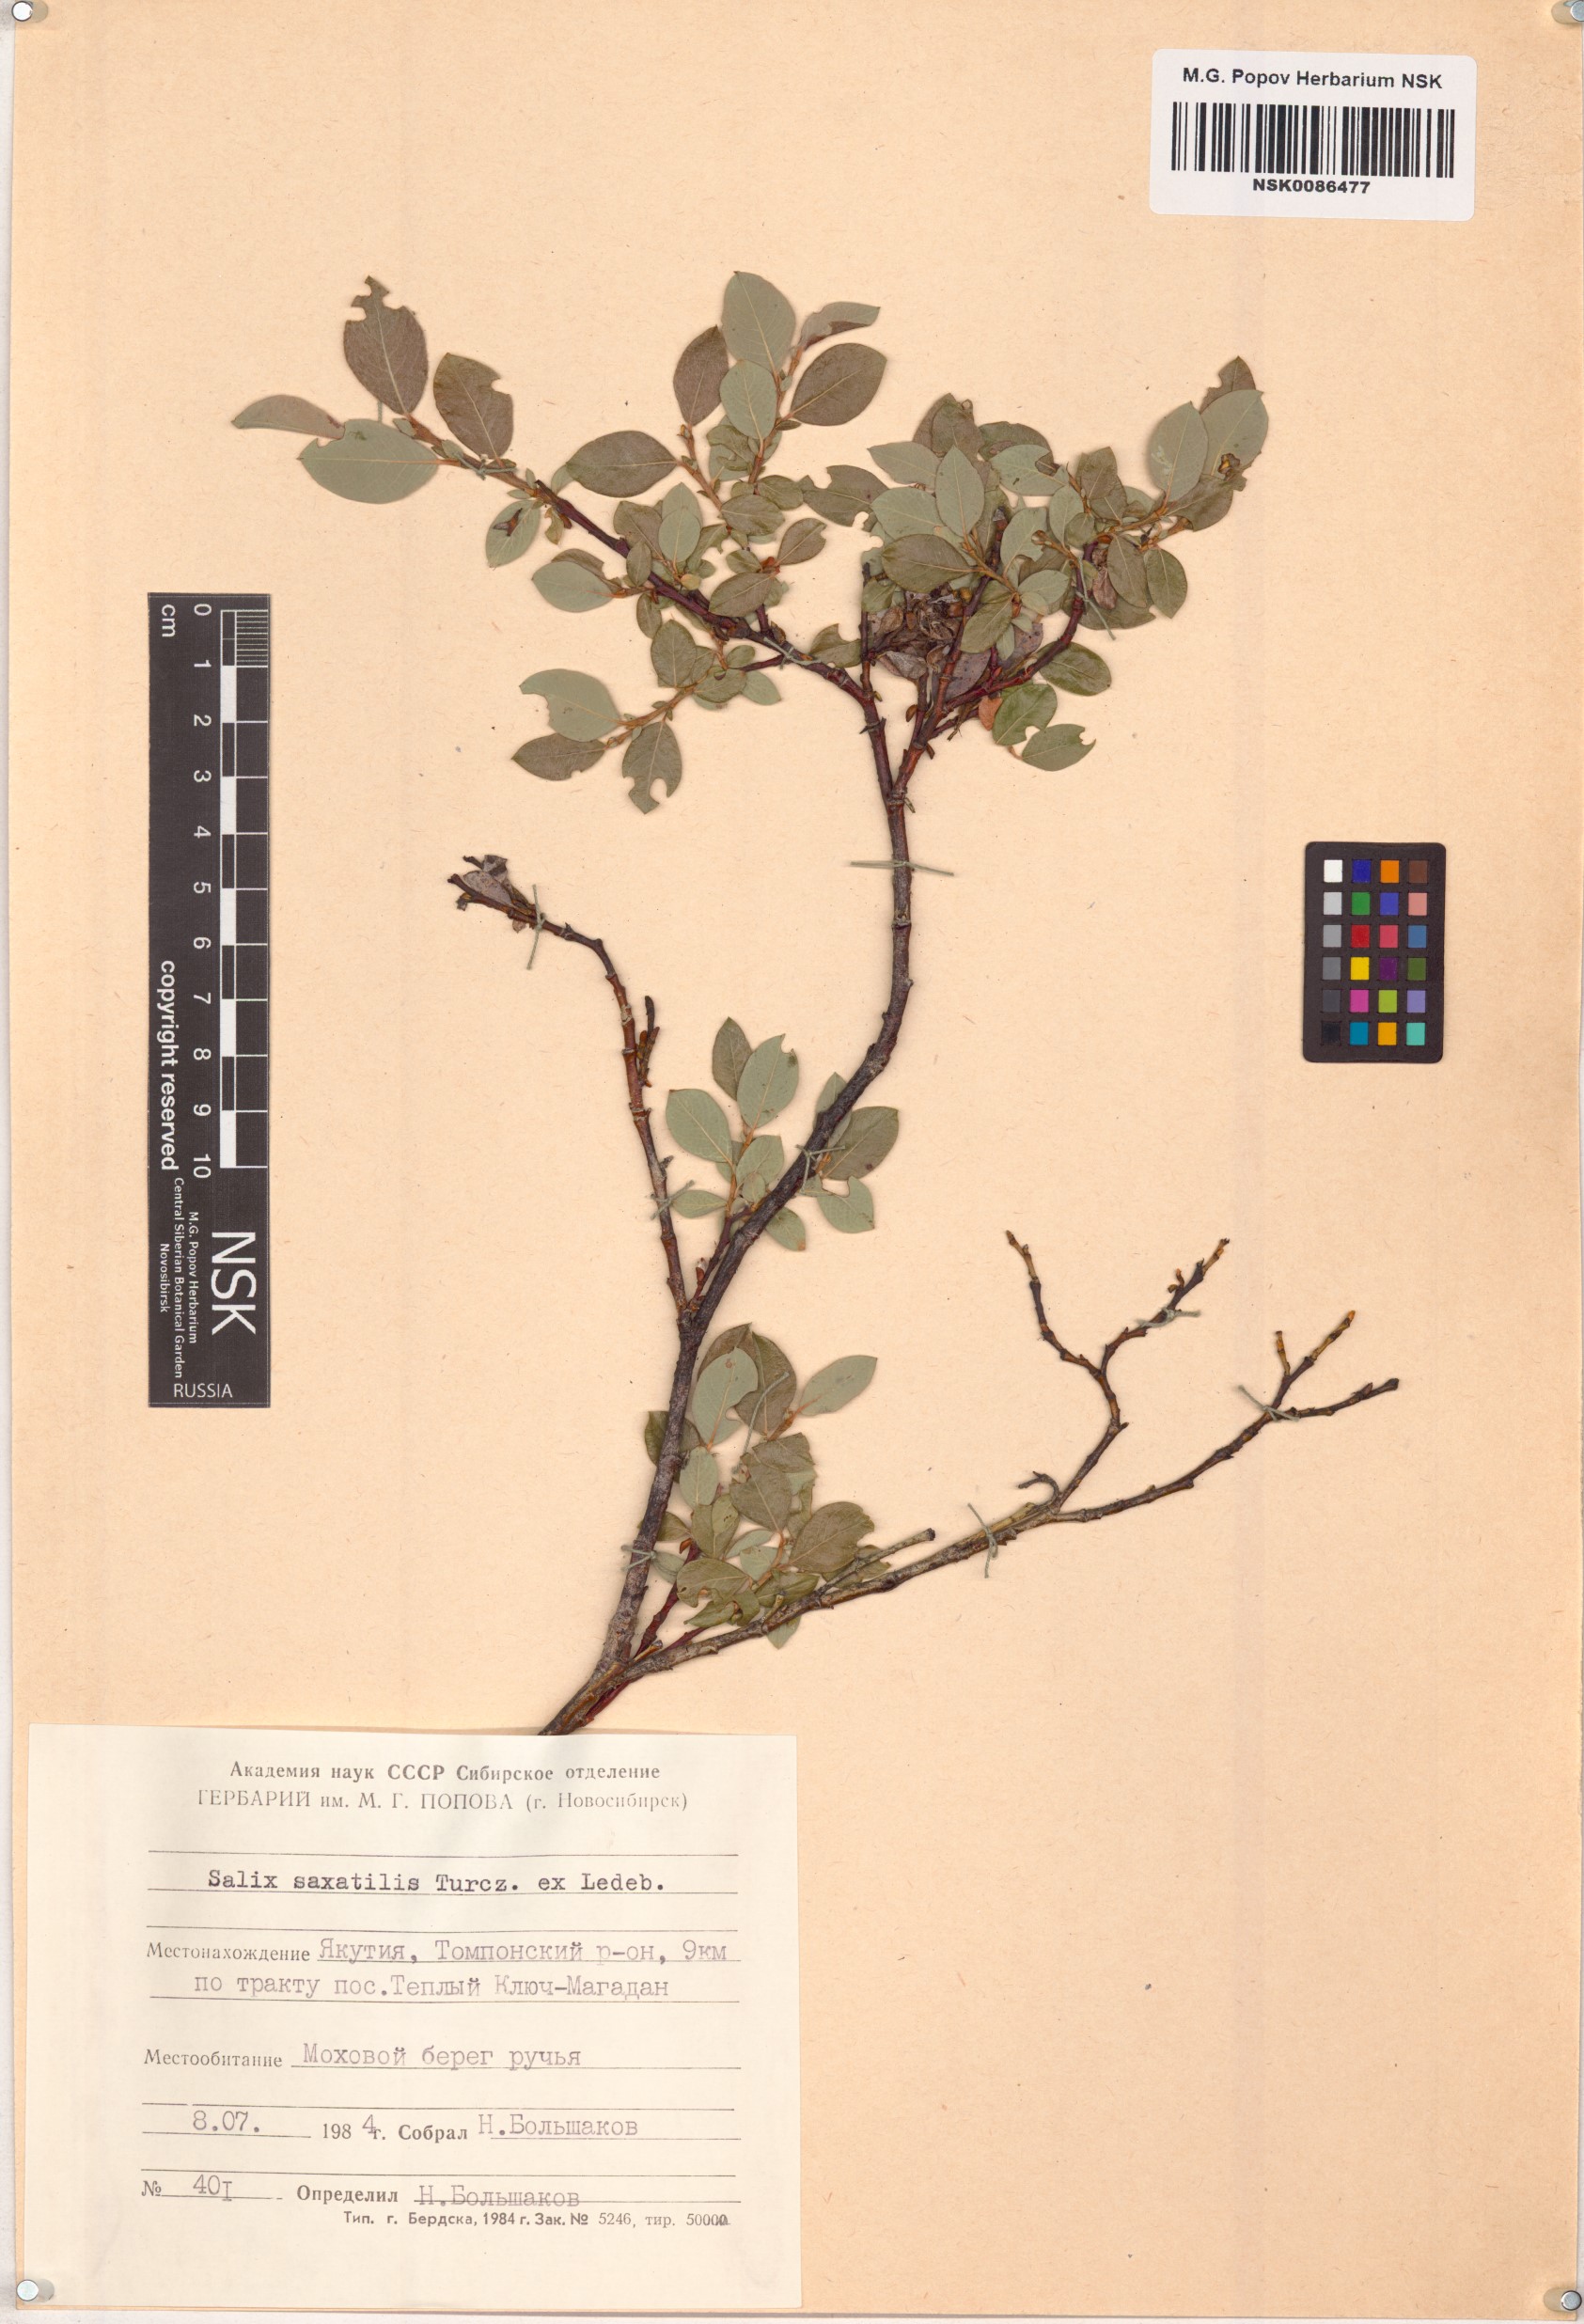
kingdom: Plantae
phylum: Tracheophyta
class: Magnoliopsida
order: Malpighiales
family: Salicaceae
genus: Salix
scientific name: Salix saxatilis
